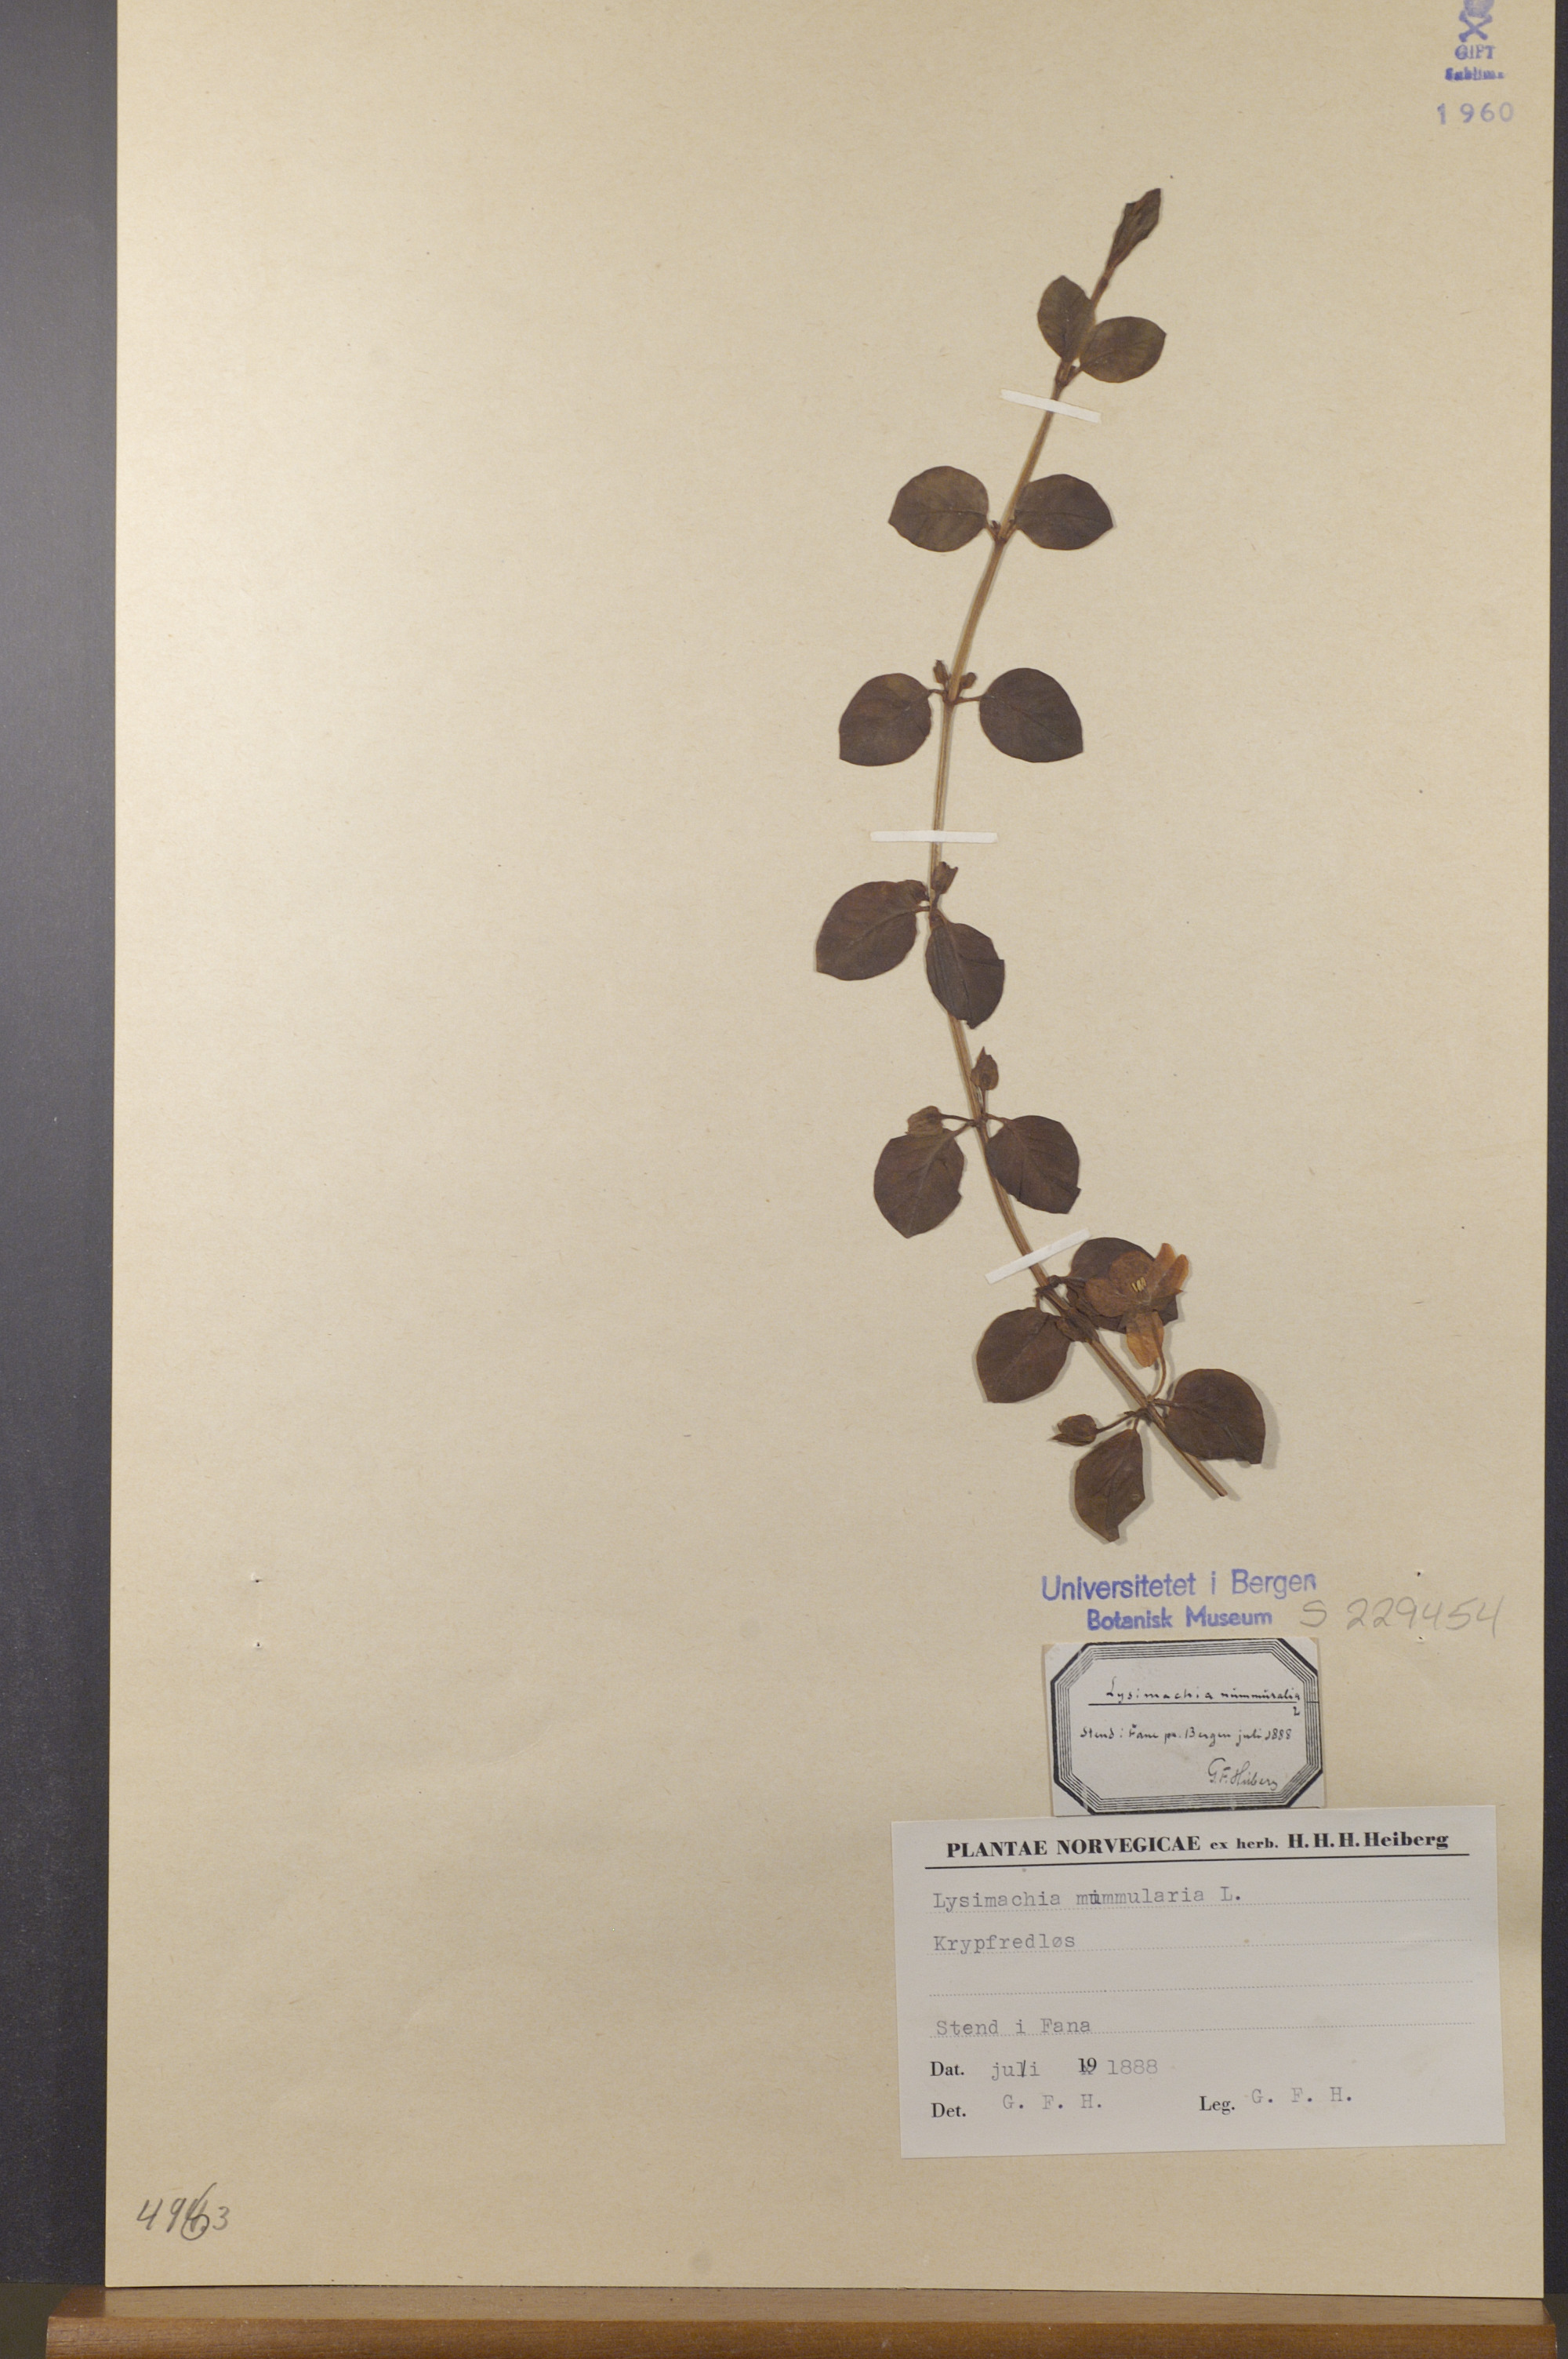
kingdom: Plantae
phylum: Tracheophyta
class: Magnoliopsida
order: Ericales
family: Primulaceae
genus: Lysimachia
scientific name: Lysimachia nummularia
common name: Moneywort
